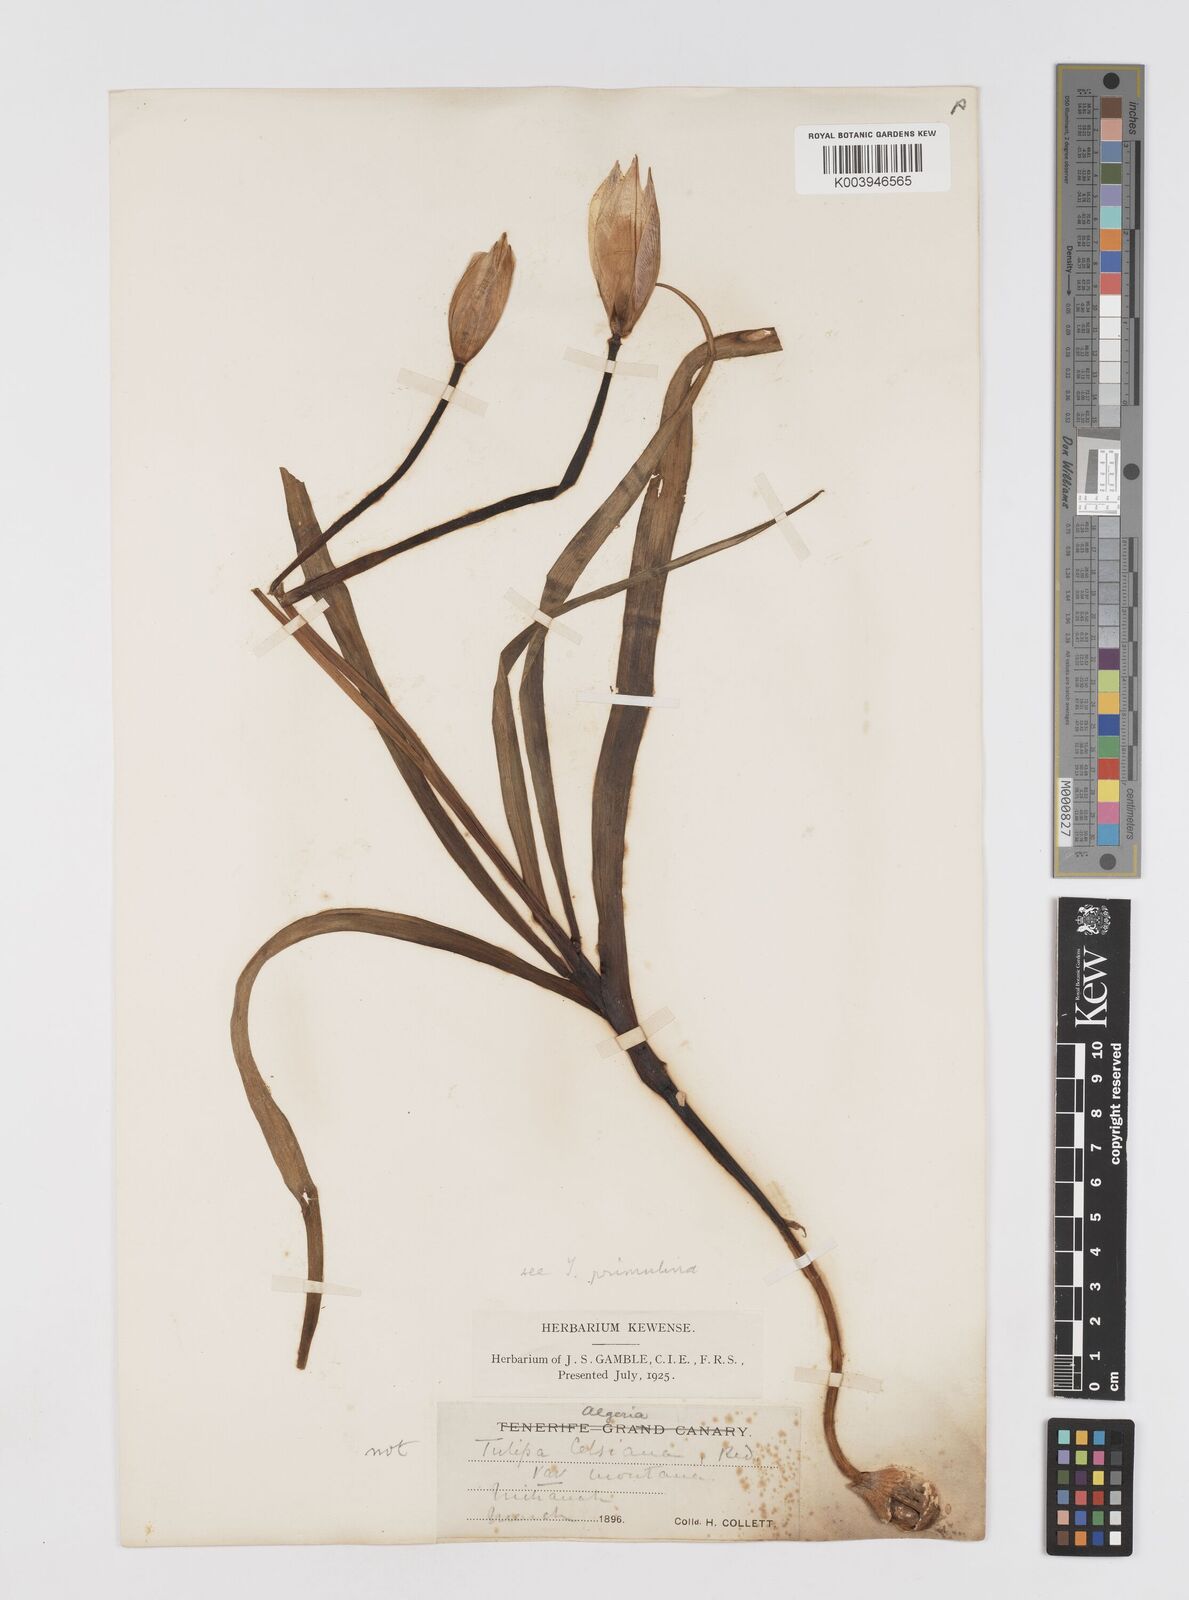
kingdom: Plantae
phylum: Tracheophyta
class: Liliopsida
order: Liliales
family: Liliaceae
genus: Tulipa
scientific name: Tulipa sylvestris
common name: Wild tulip
